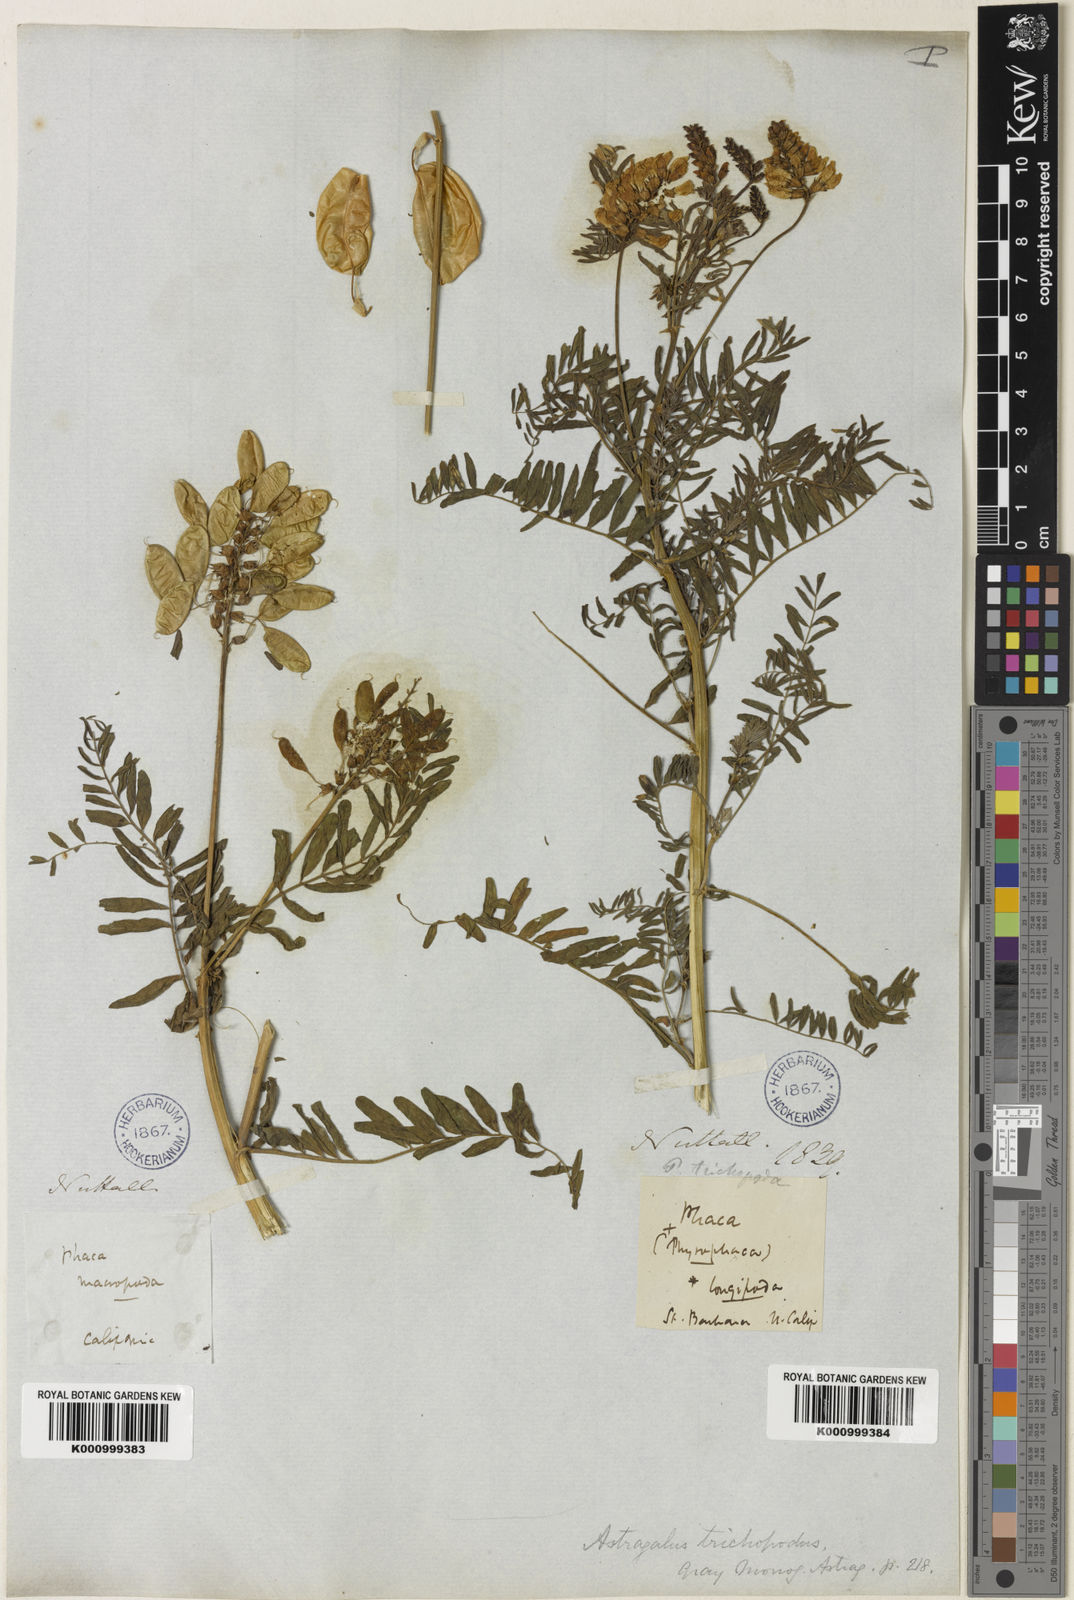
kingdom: Plantae
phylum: Tracheophyta
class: Magnoliopsida
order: Fabales
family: Fabaceae
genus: Astragalus
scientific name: Astragalus trichopodus
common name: Santa barbara milk-vetch
